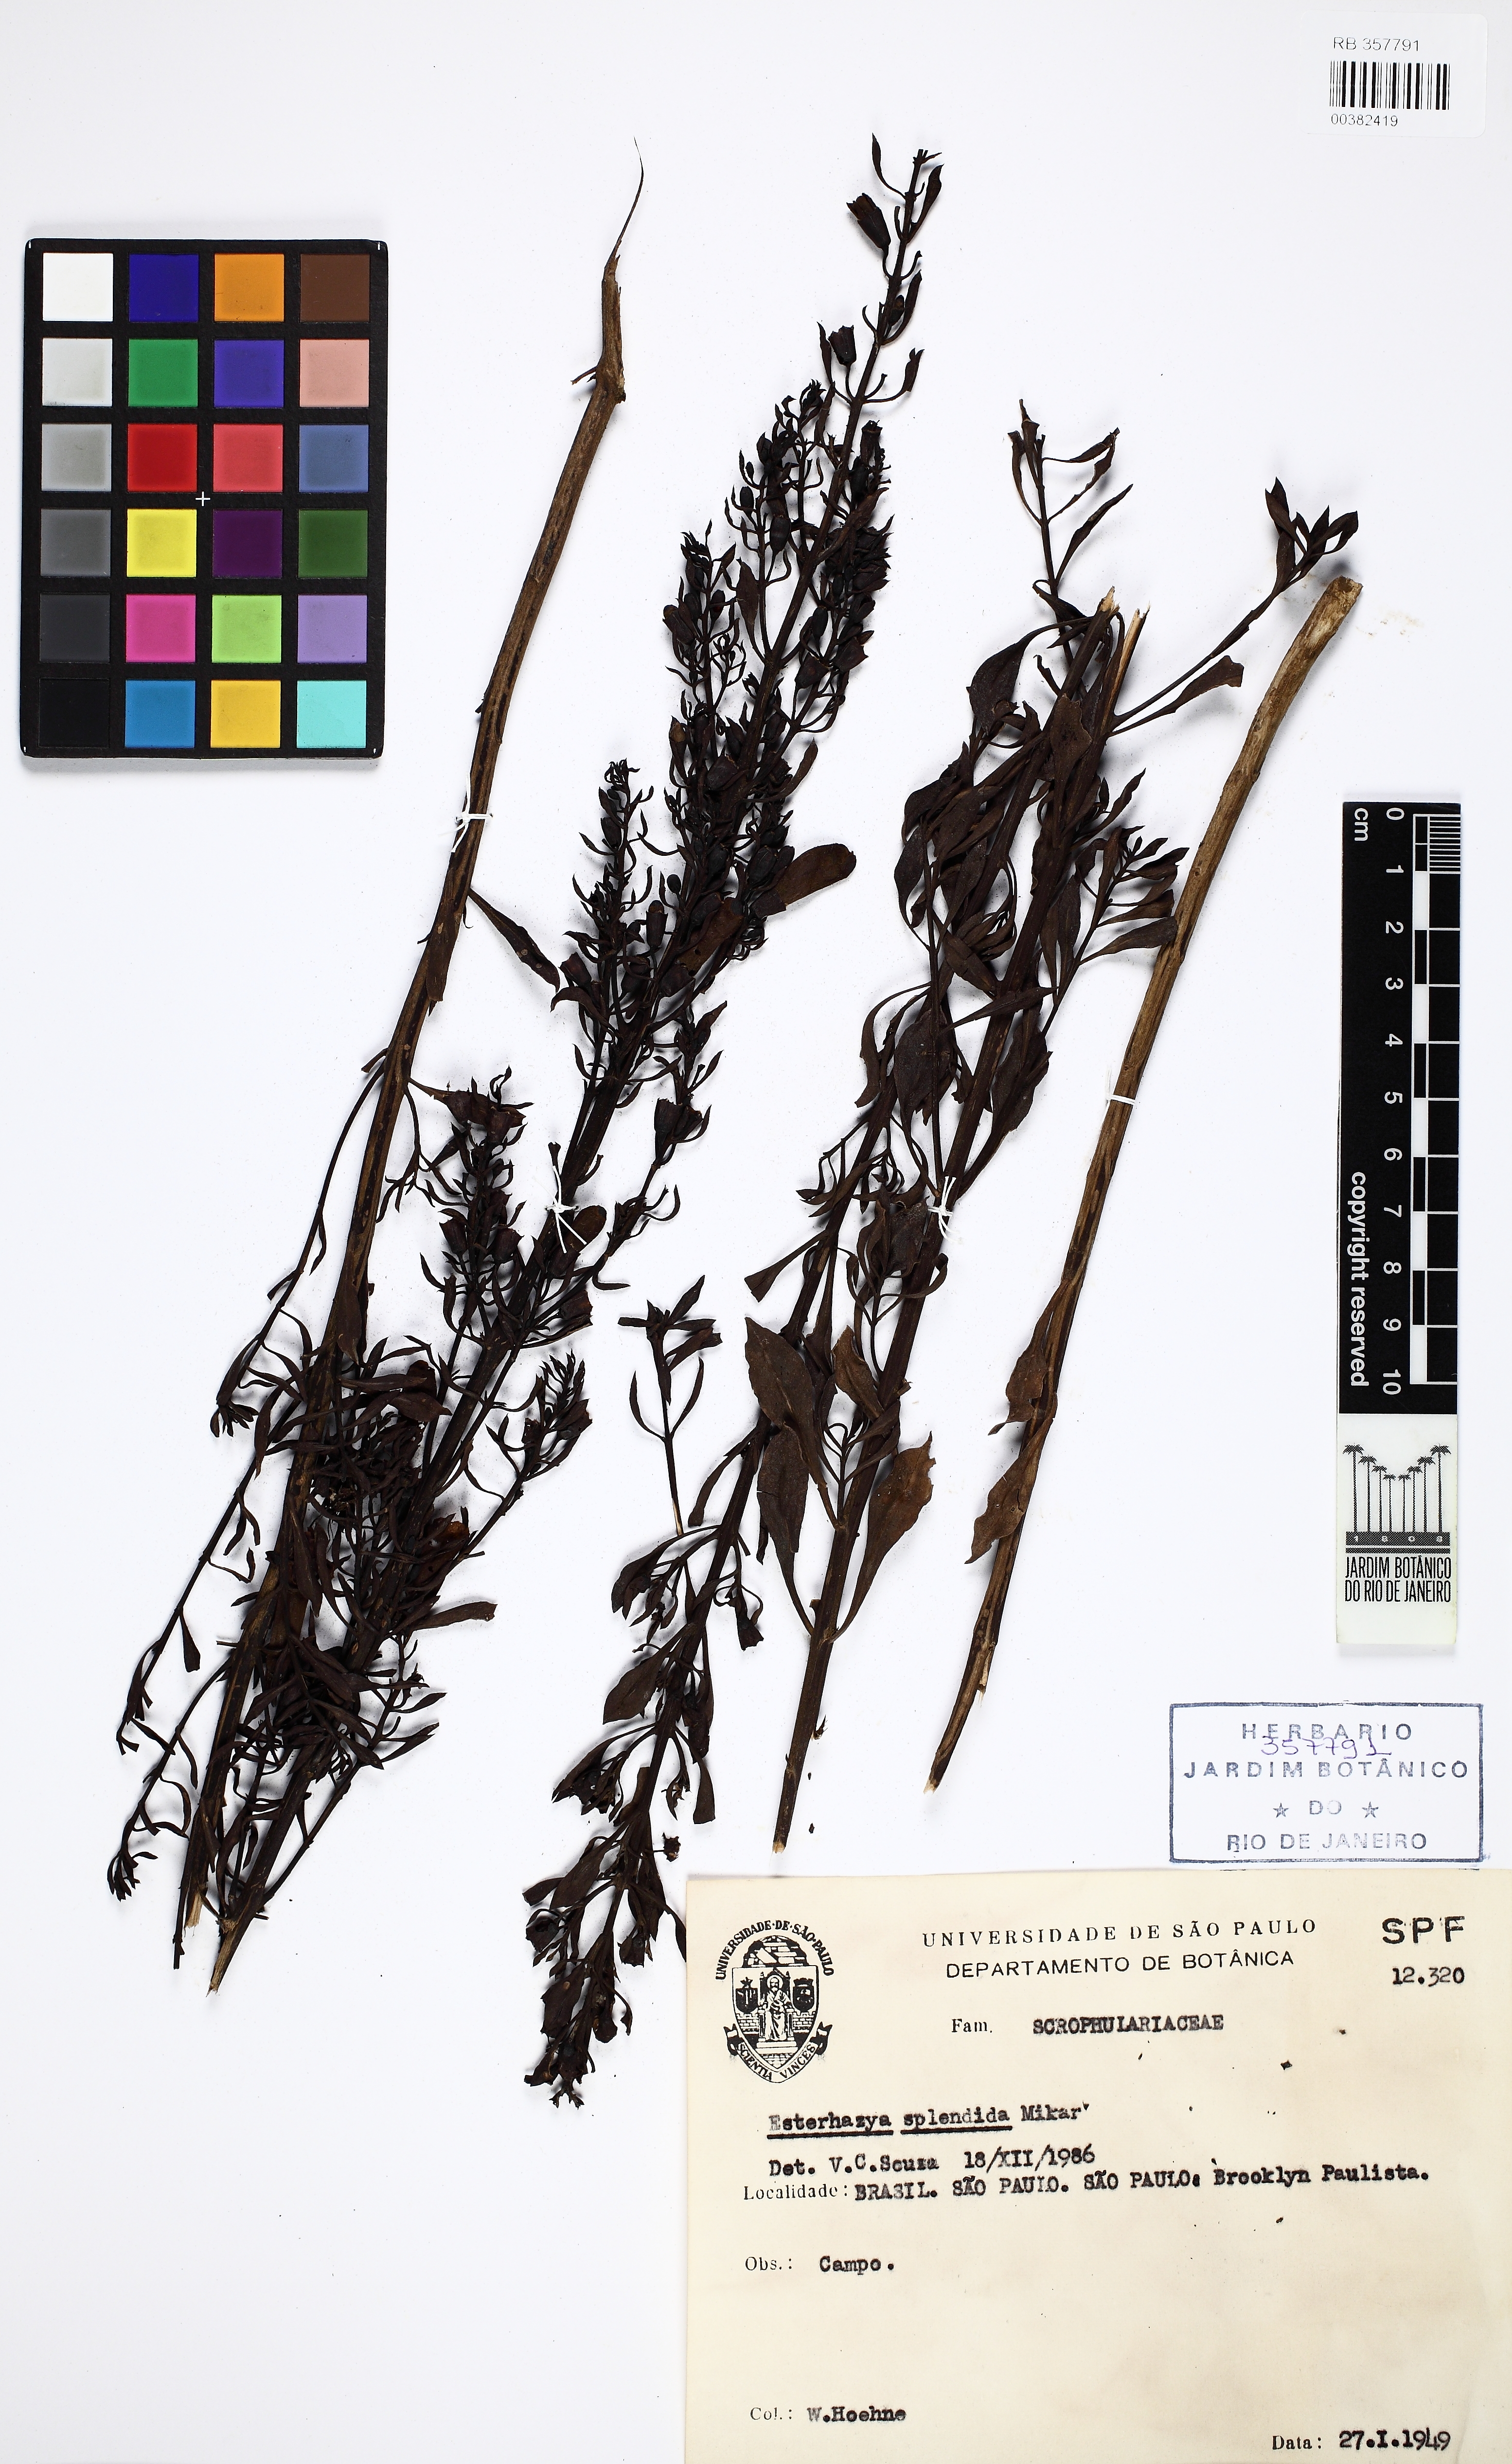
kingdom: Plantae
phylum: Tracheophyta
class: Magnoliopsida
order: Lamiales
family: Orobanchaceae
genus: Esterhazya
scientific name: Esterhazya splendida
